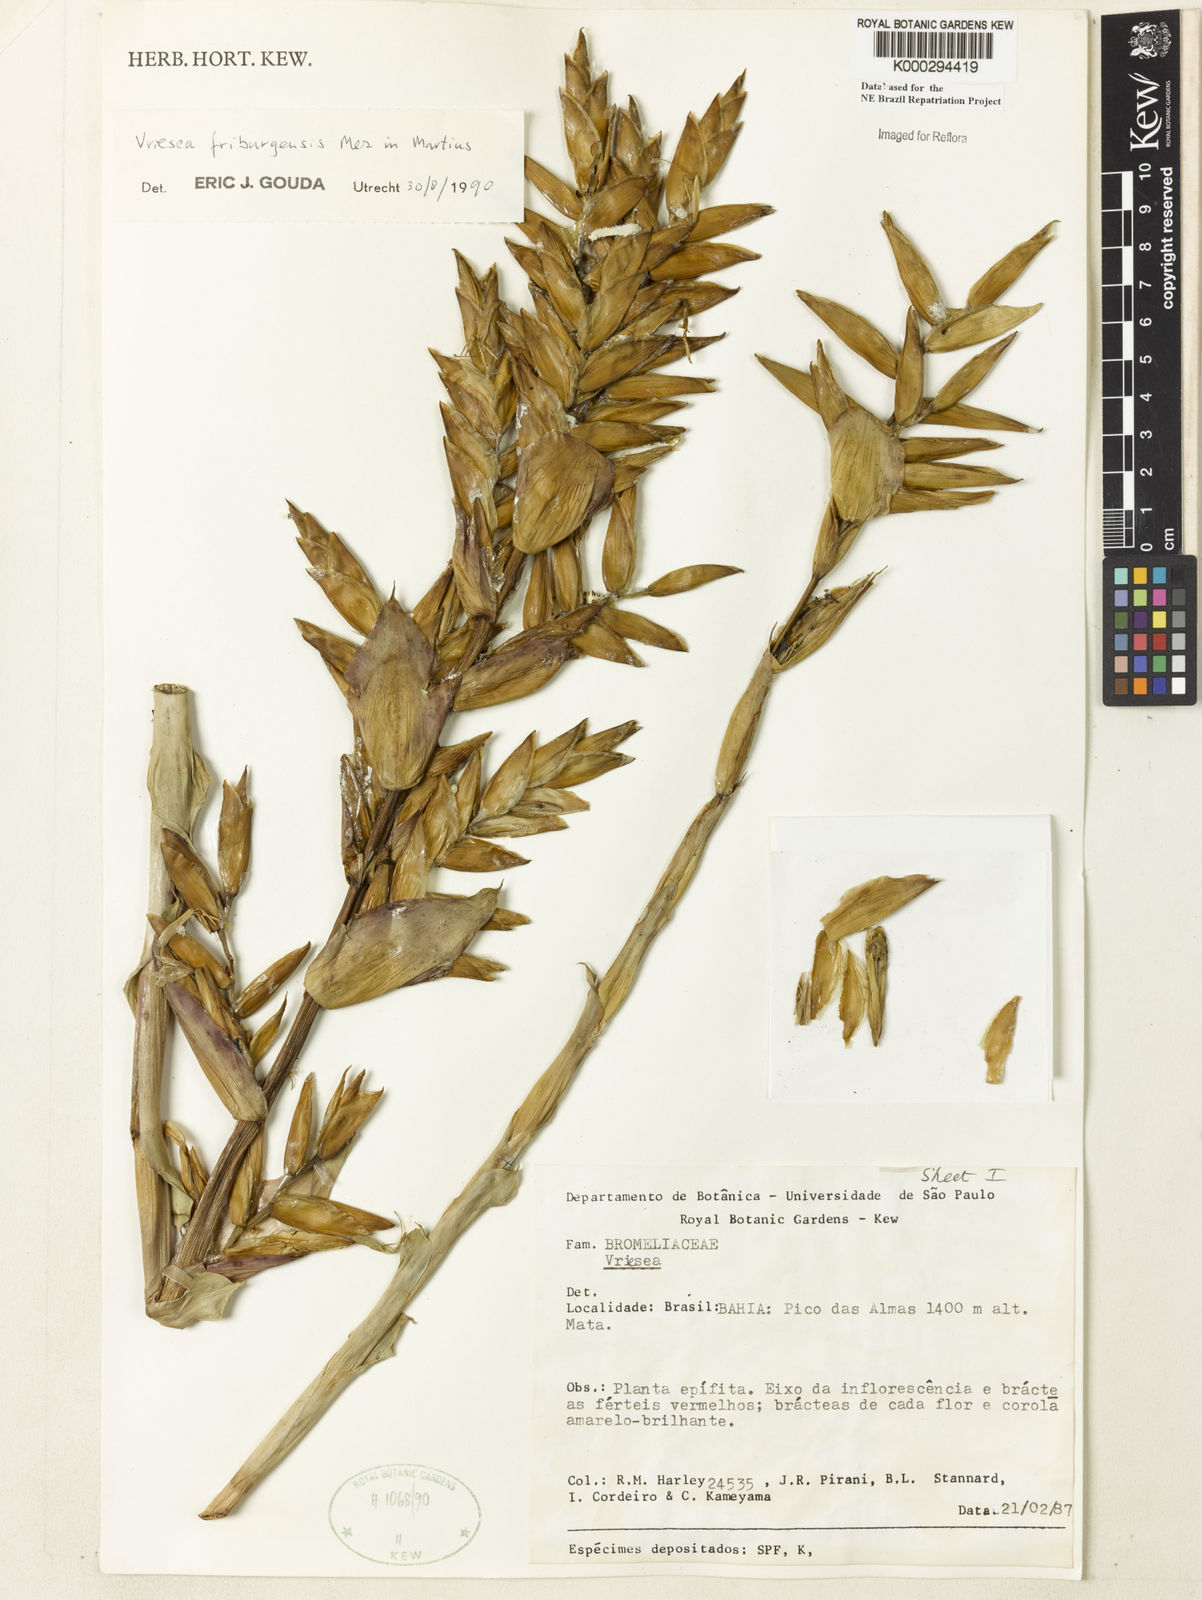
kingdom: Plantae
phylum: Tracheophyta
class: Liliopsida
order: Poales
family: Bromeliaceae
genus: Vriesea
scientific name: Vriesea friburgensis
